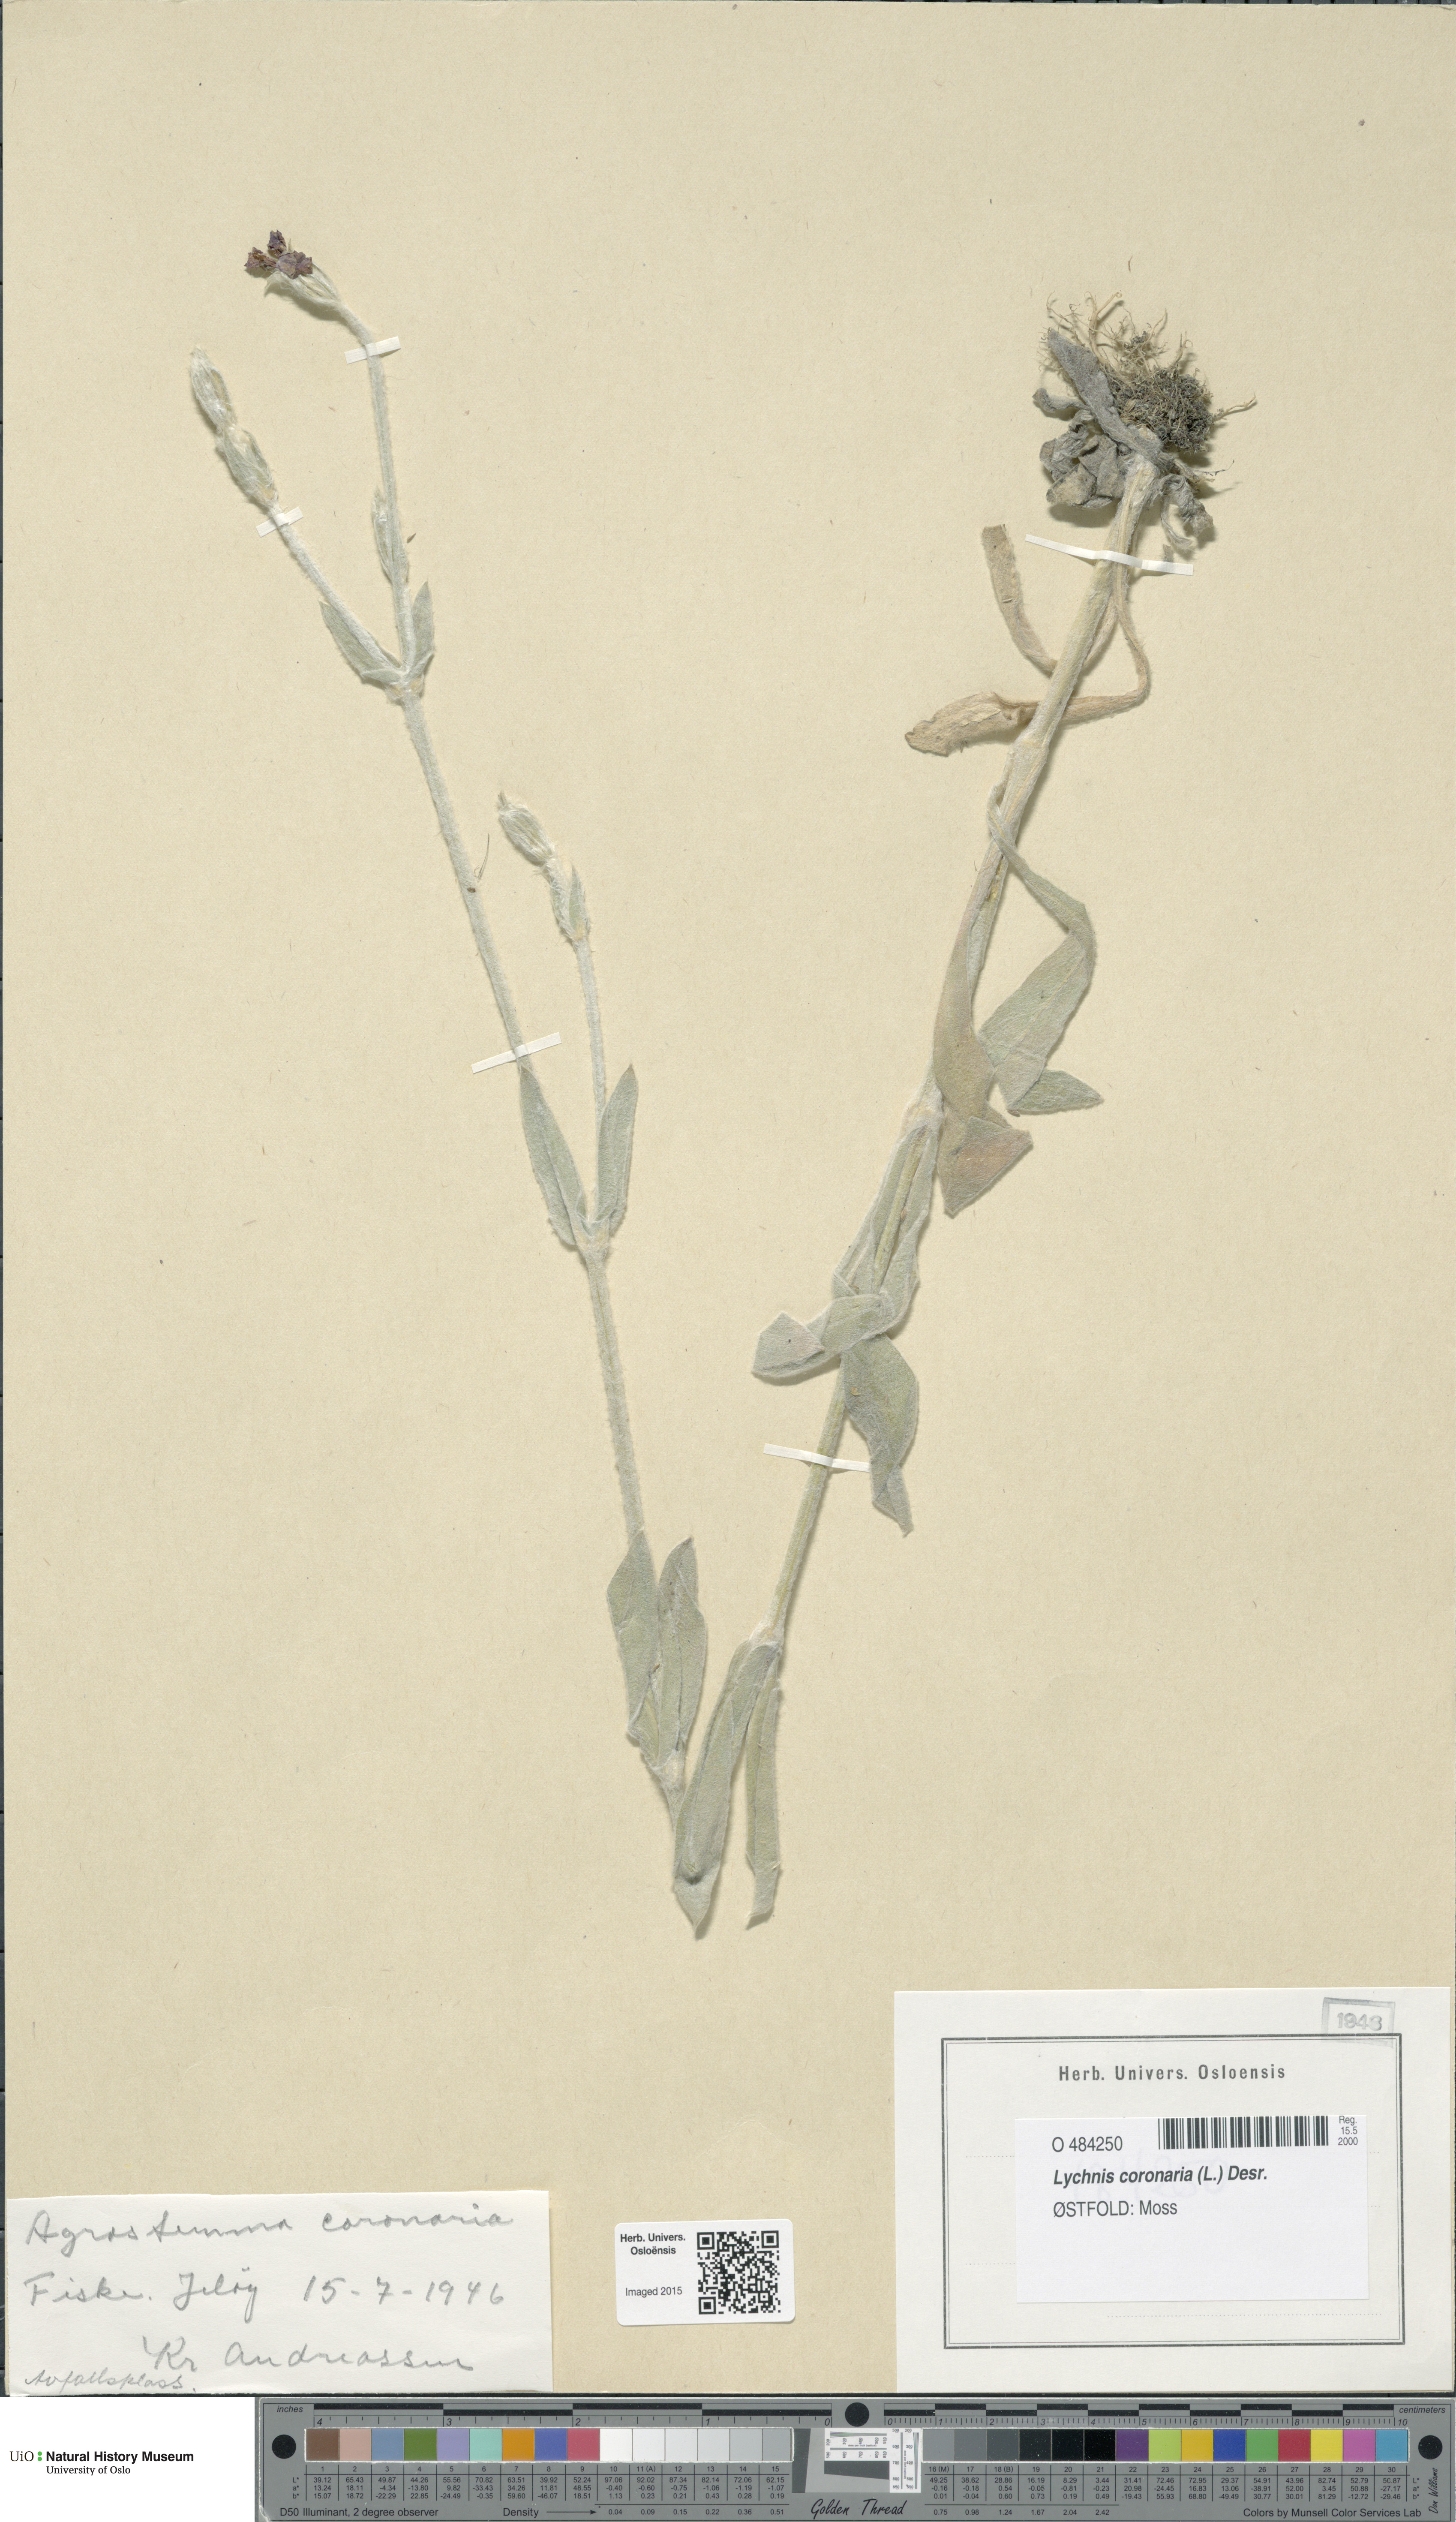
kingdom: Plantae
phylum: Tracheophyta
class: Magnoliopsida
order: Caryophyllales
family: Caryophyllaceae
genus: Silene
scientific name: Silene coronaria
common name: Rose campion
